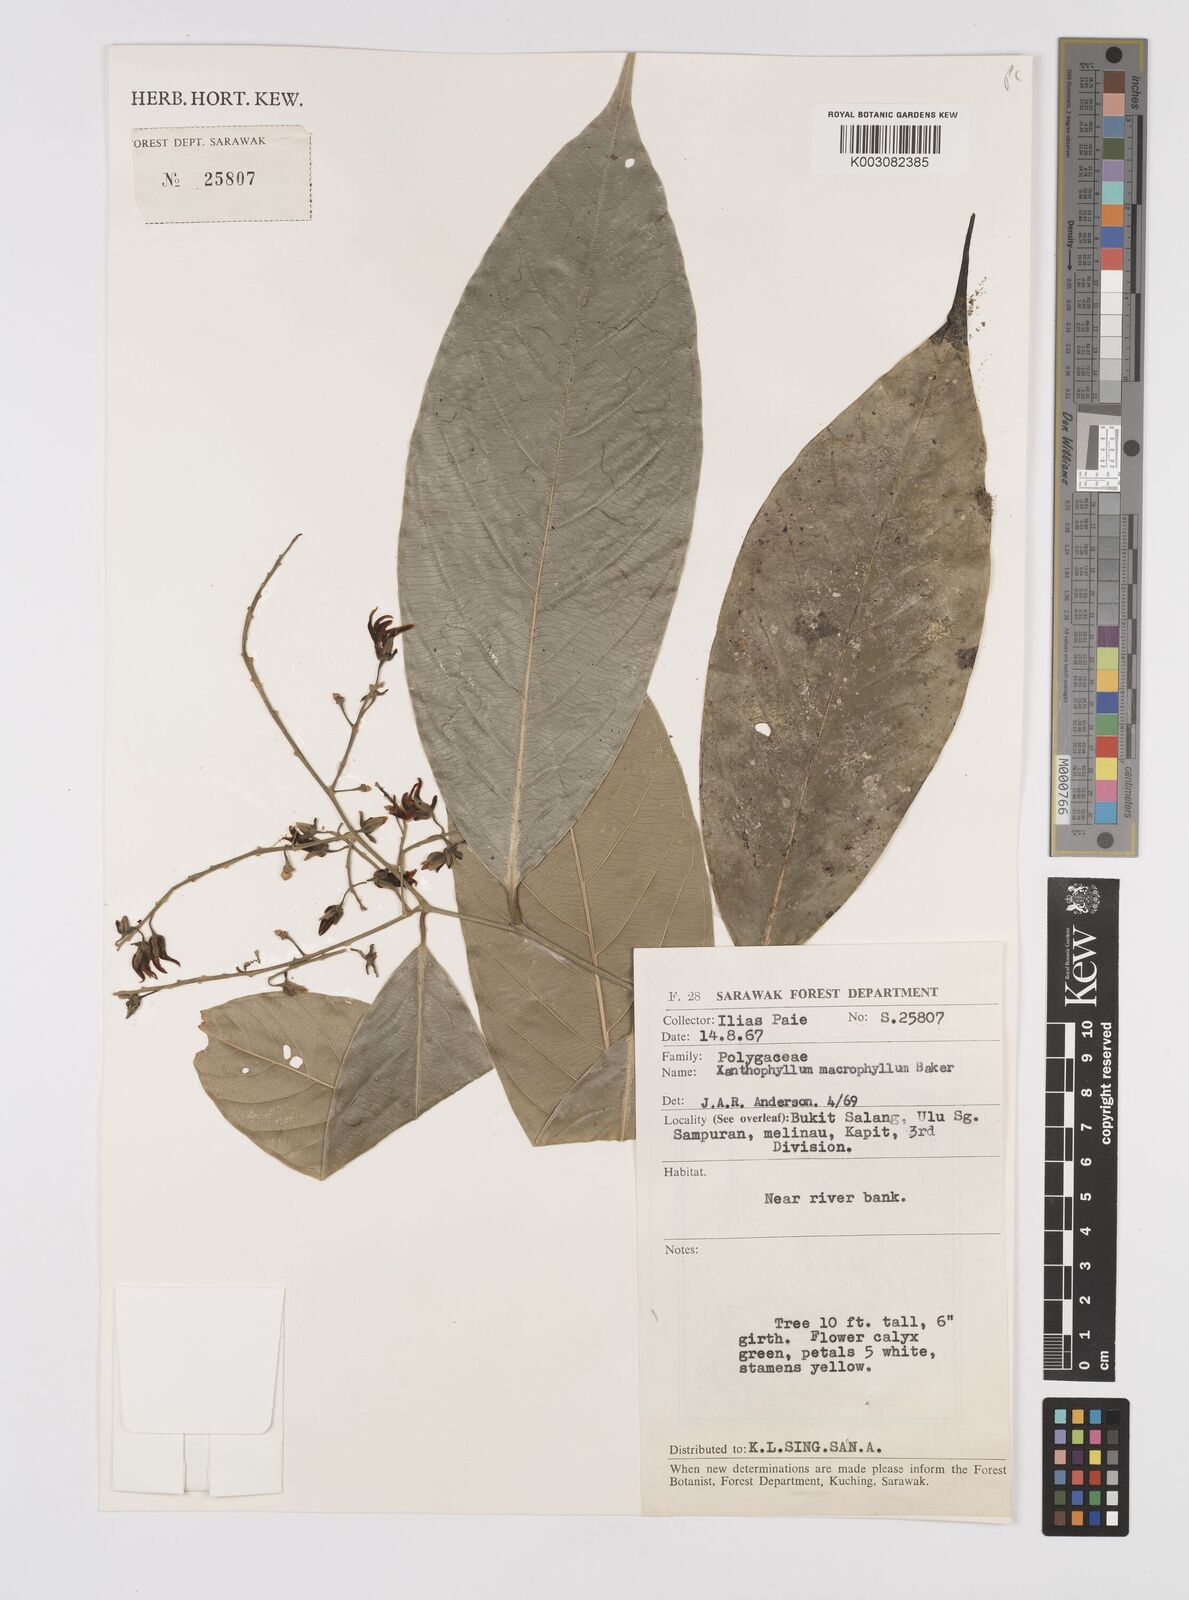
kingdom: Plantae
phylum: Tracheophyta
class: Magnoliopsida
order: Fabales
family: Polygalaceae
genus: Xanthophyllum
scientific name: Xanthophyllum macrophyllum
